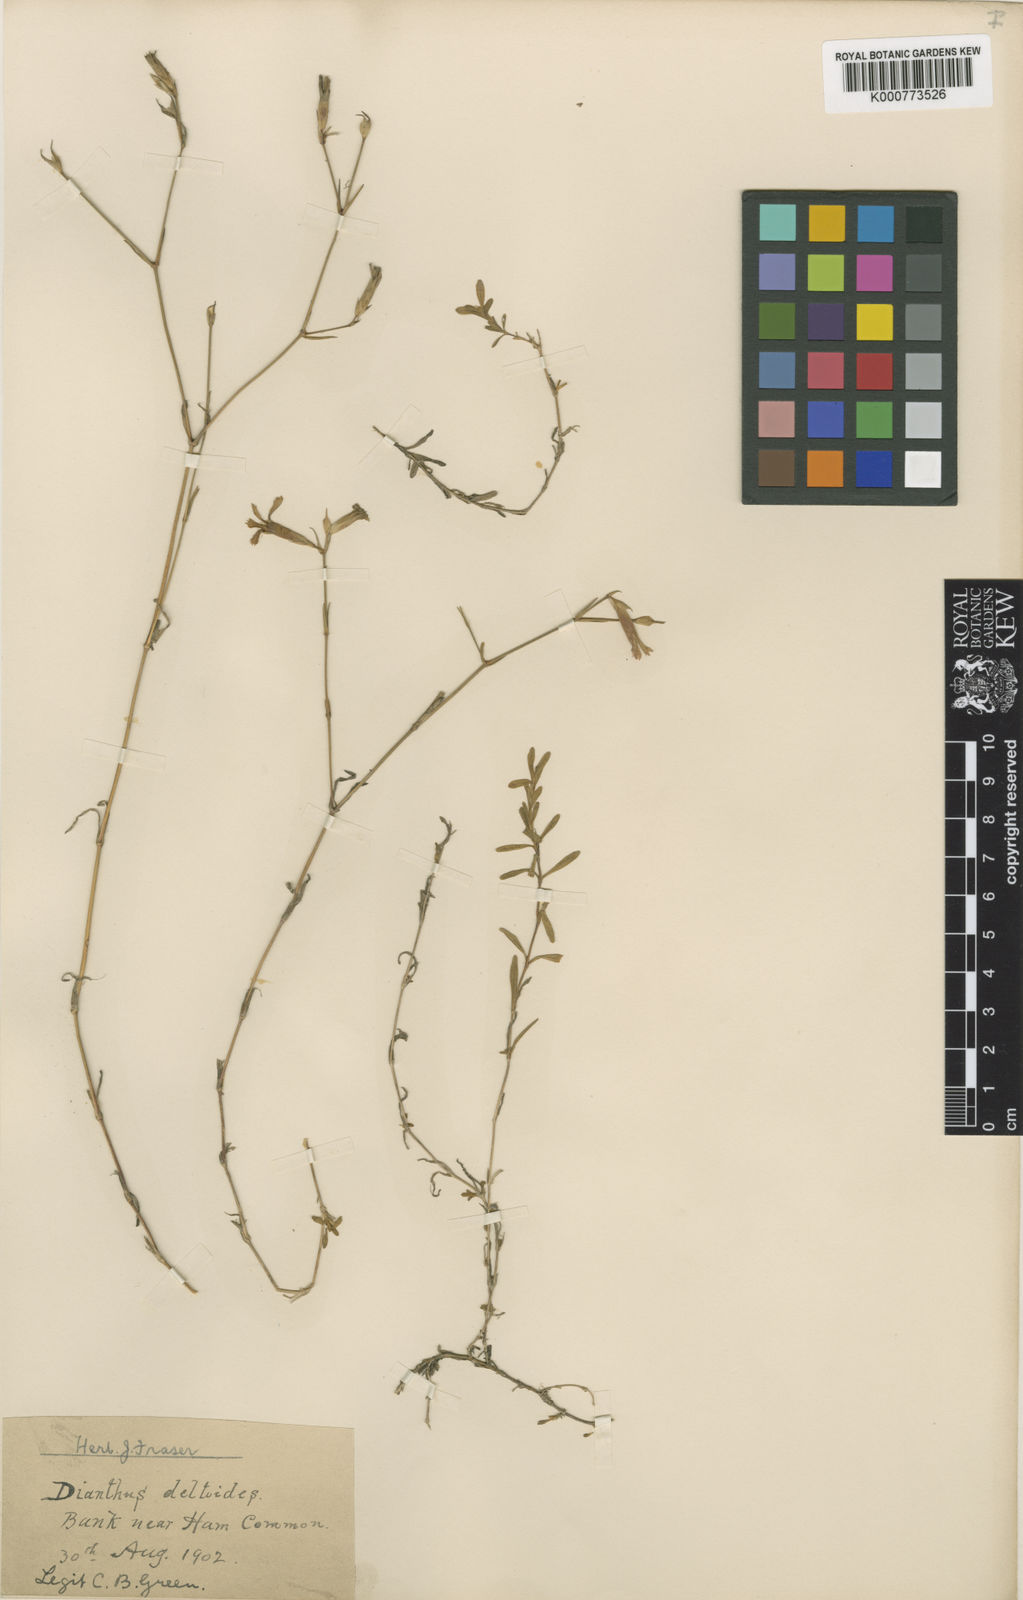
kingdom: Plantae
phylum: Tracheophyta
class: Magnoliopsida
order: Caryophyllales
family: Caryophyllaceae
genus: Dianthus
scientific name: Dianthus deltoides
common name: Maiden pink
